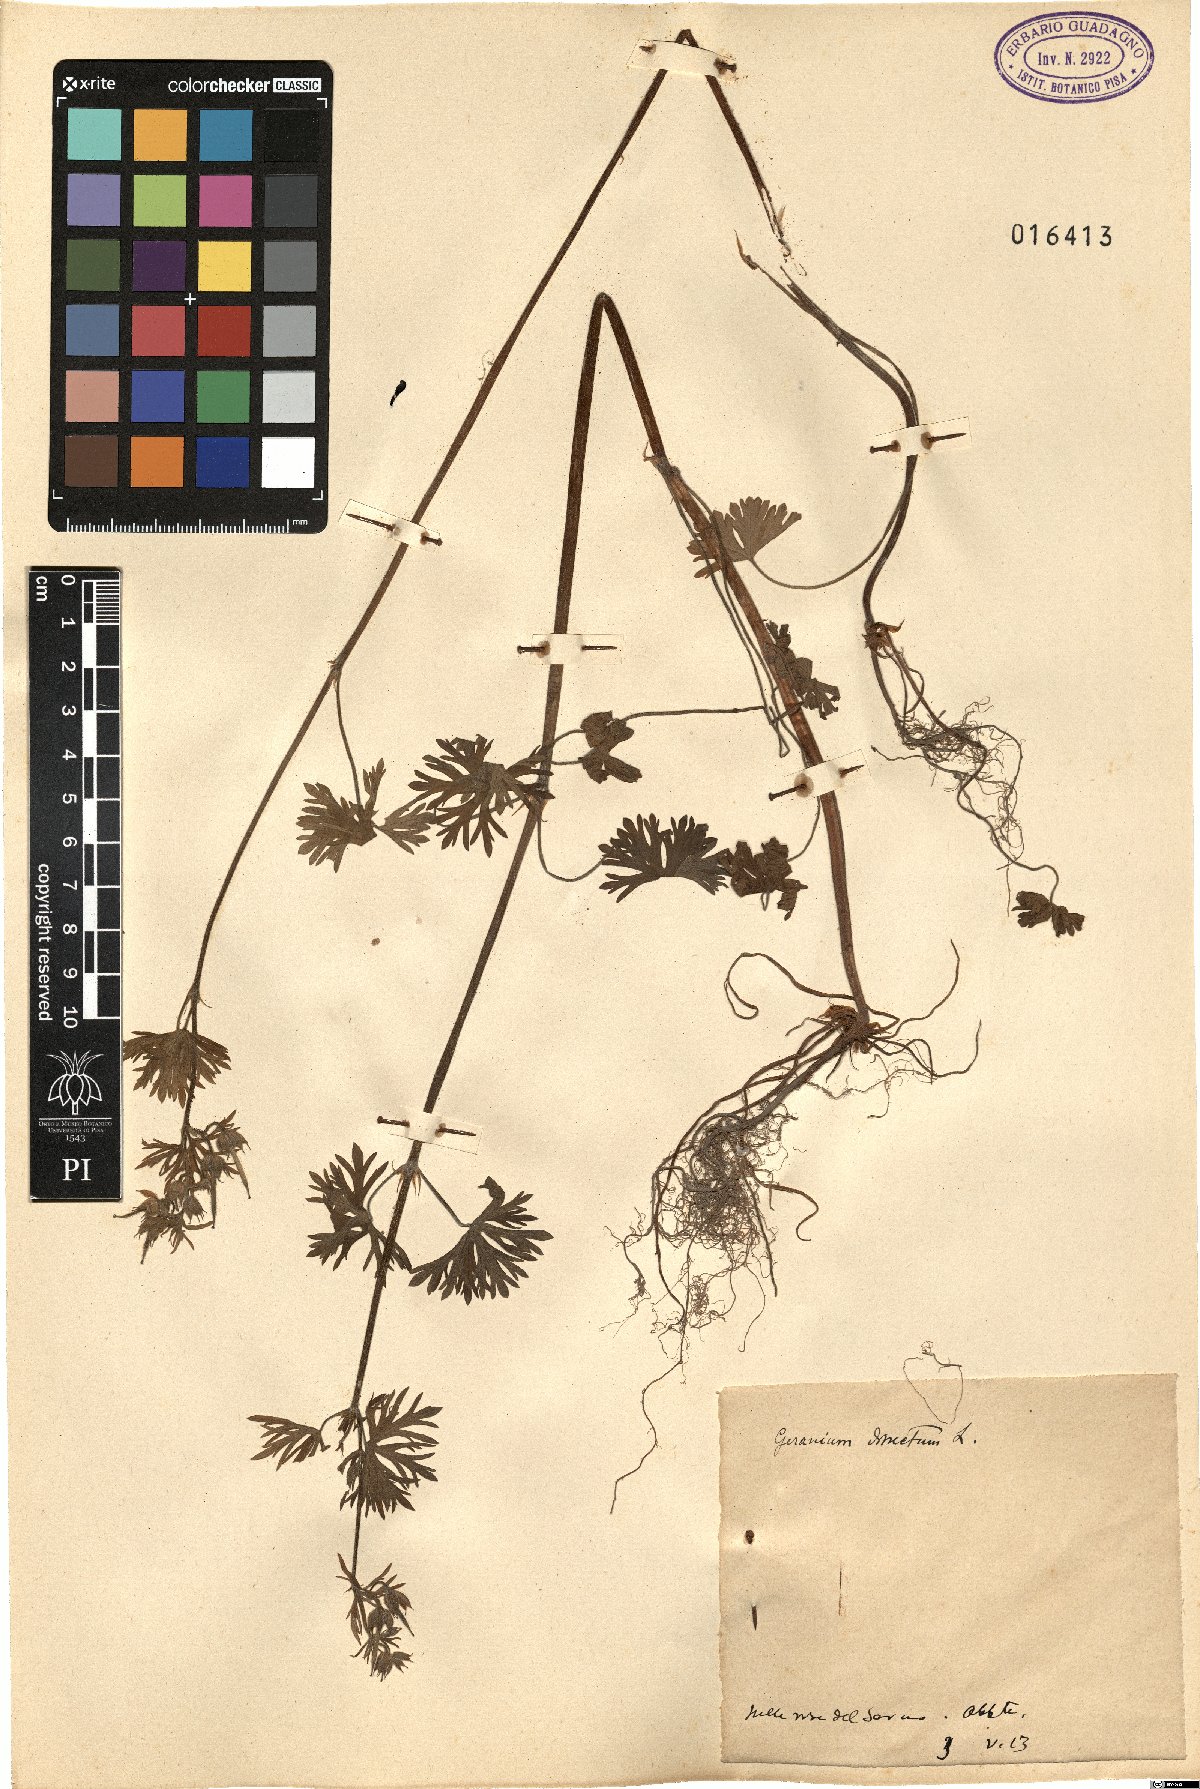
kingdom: Plantae
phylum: Tracheophyta
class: Magnoliopsida
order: Geraniales
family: Geraniaceae
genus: Geranium
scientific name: Geranium dissectum
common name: Cut-leaved crane's-bill
